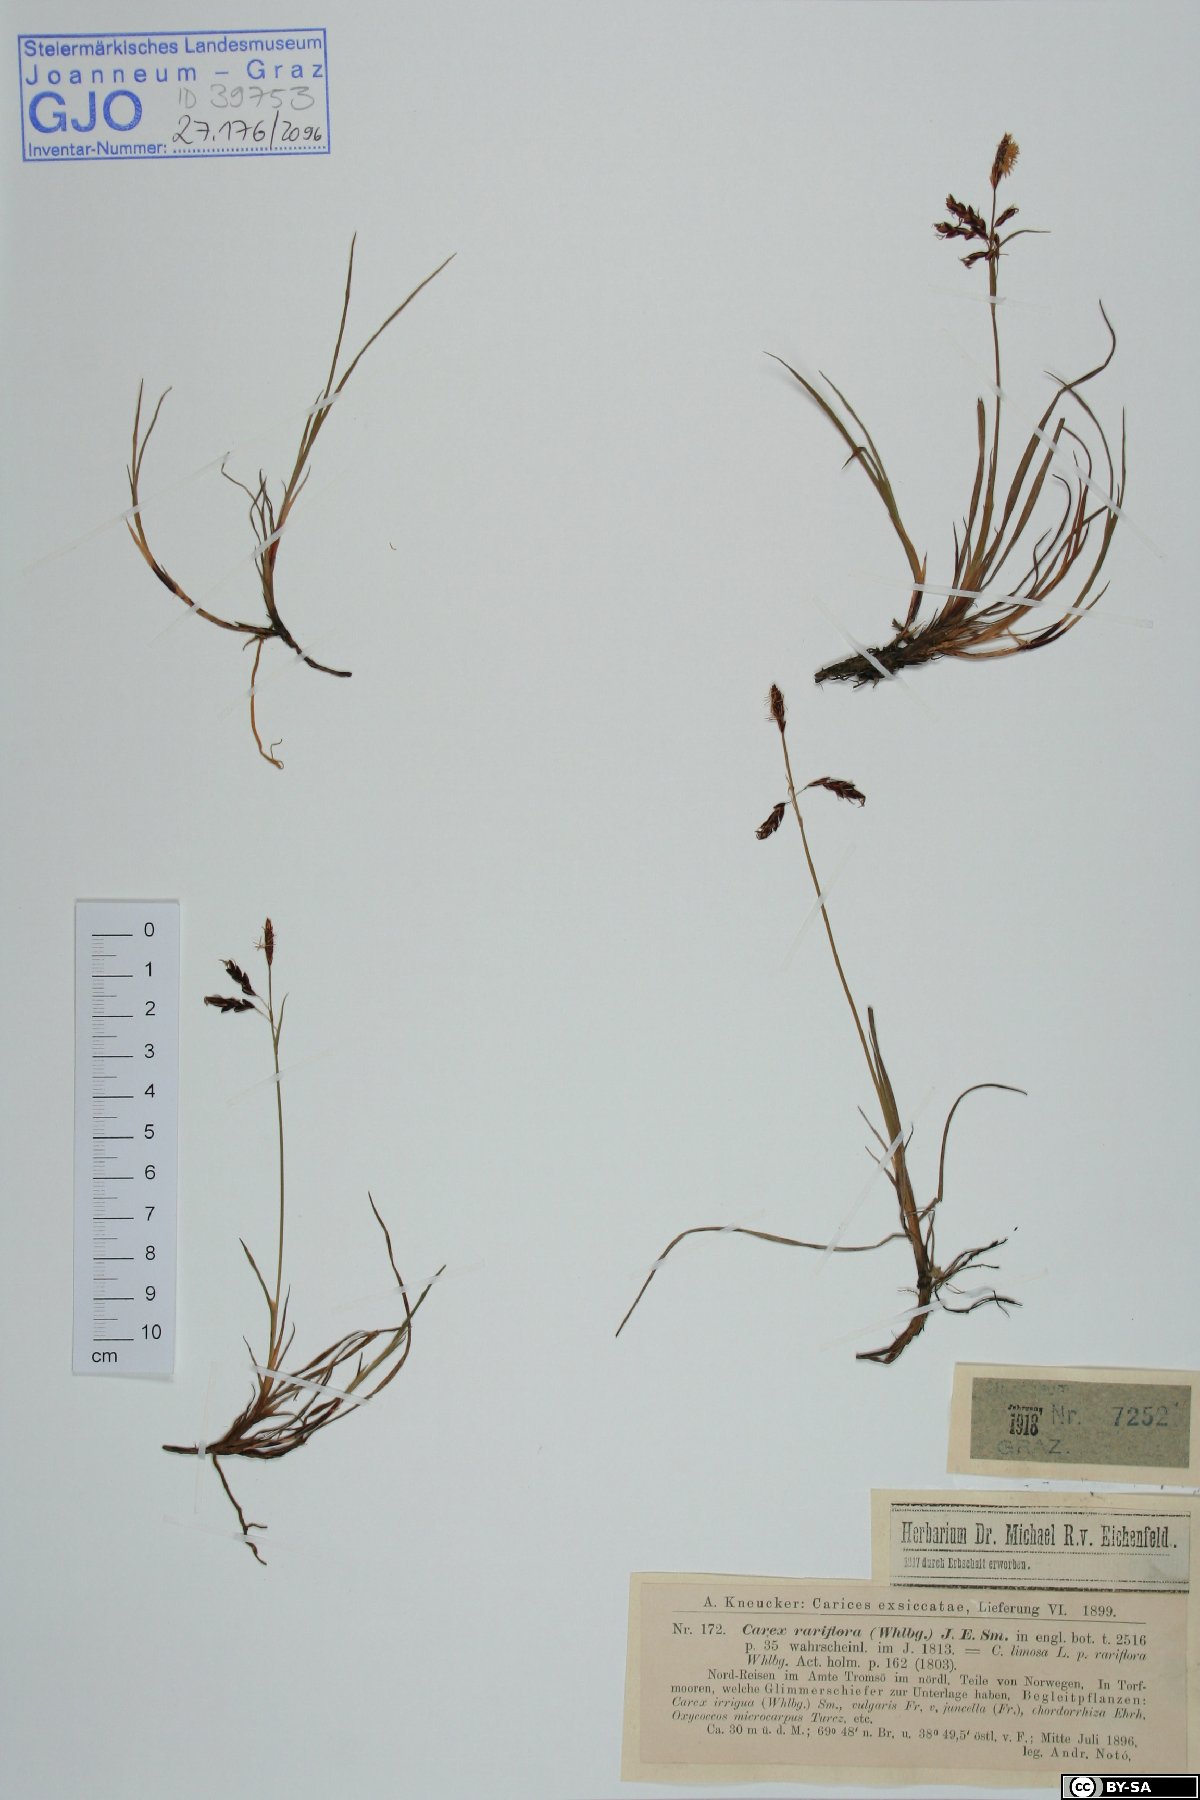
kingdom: Plantae
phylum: Tracheophyta
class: Liliopsida
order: Poales
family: Cyperaceae
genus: Carex
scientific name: Carex rariflora
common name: Loose-flowered alpine sedge
